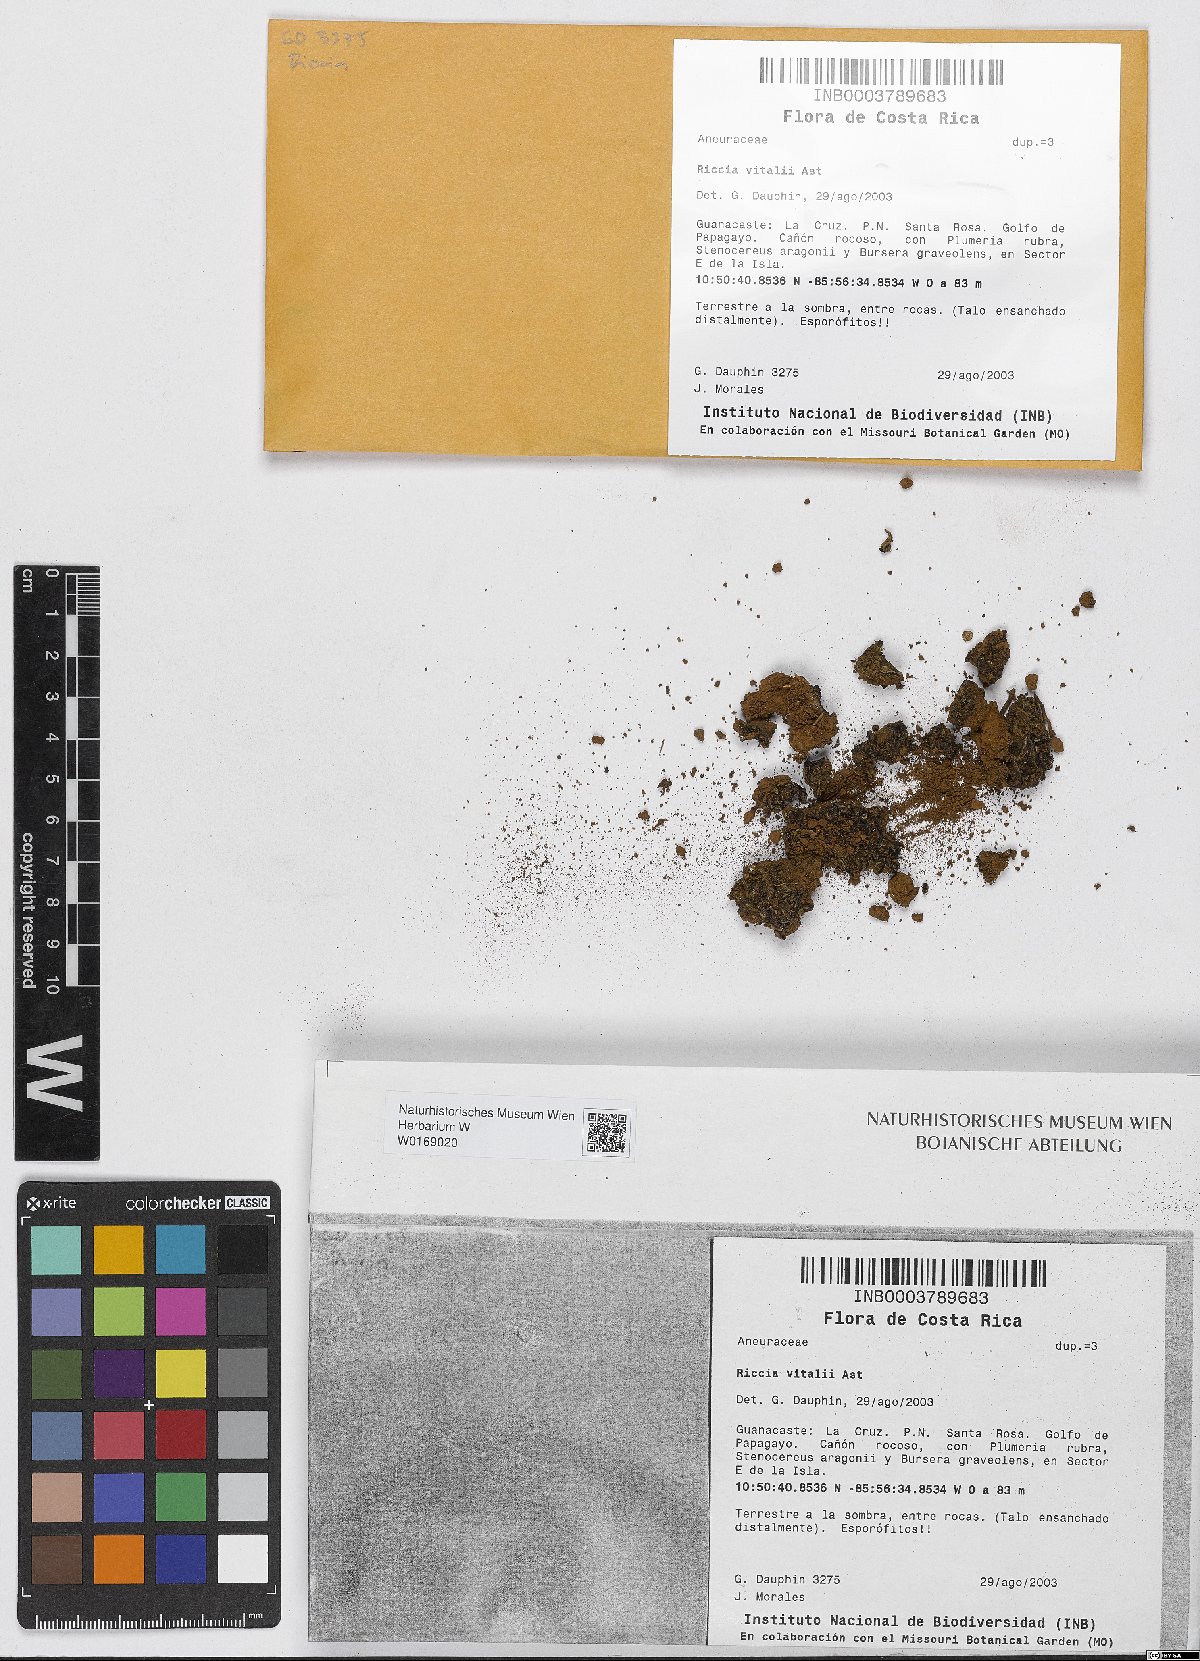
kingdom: Plantae
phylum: Marchantiophyta
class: Marchantiopsida
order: Marchantiales
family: Ricciaceae
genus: Riccia
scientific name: Riccia
